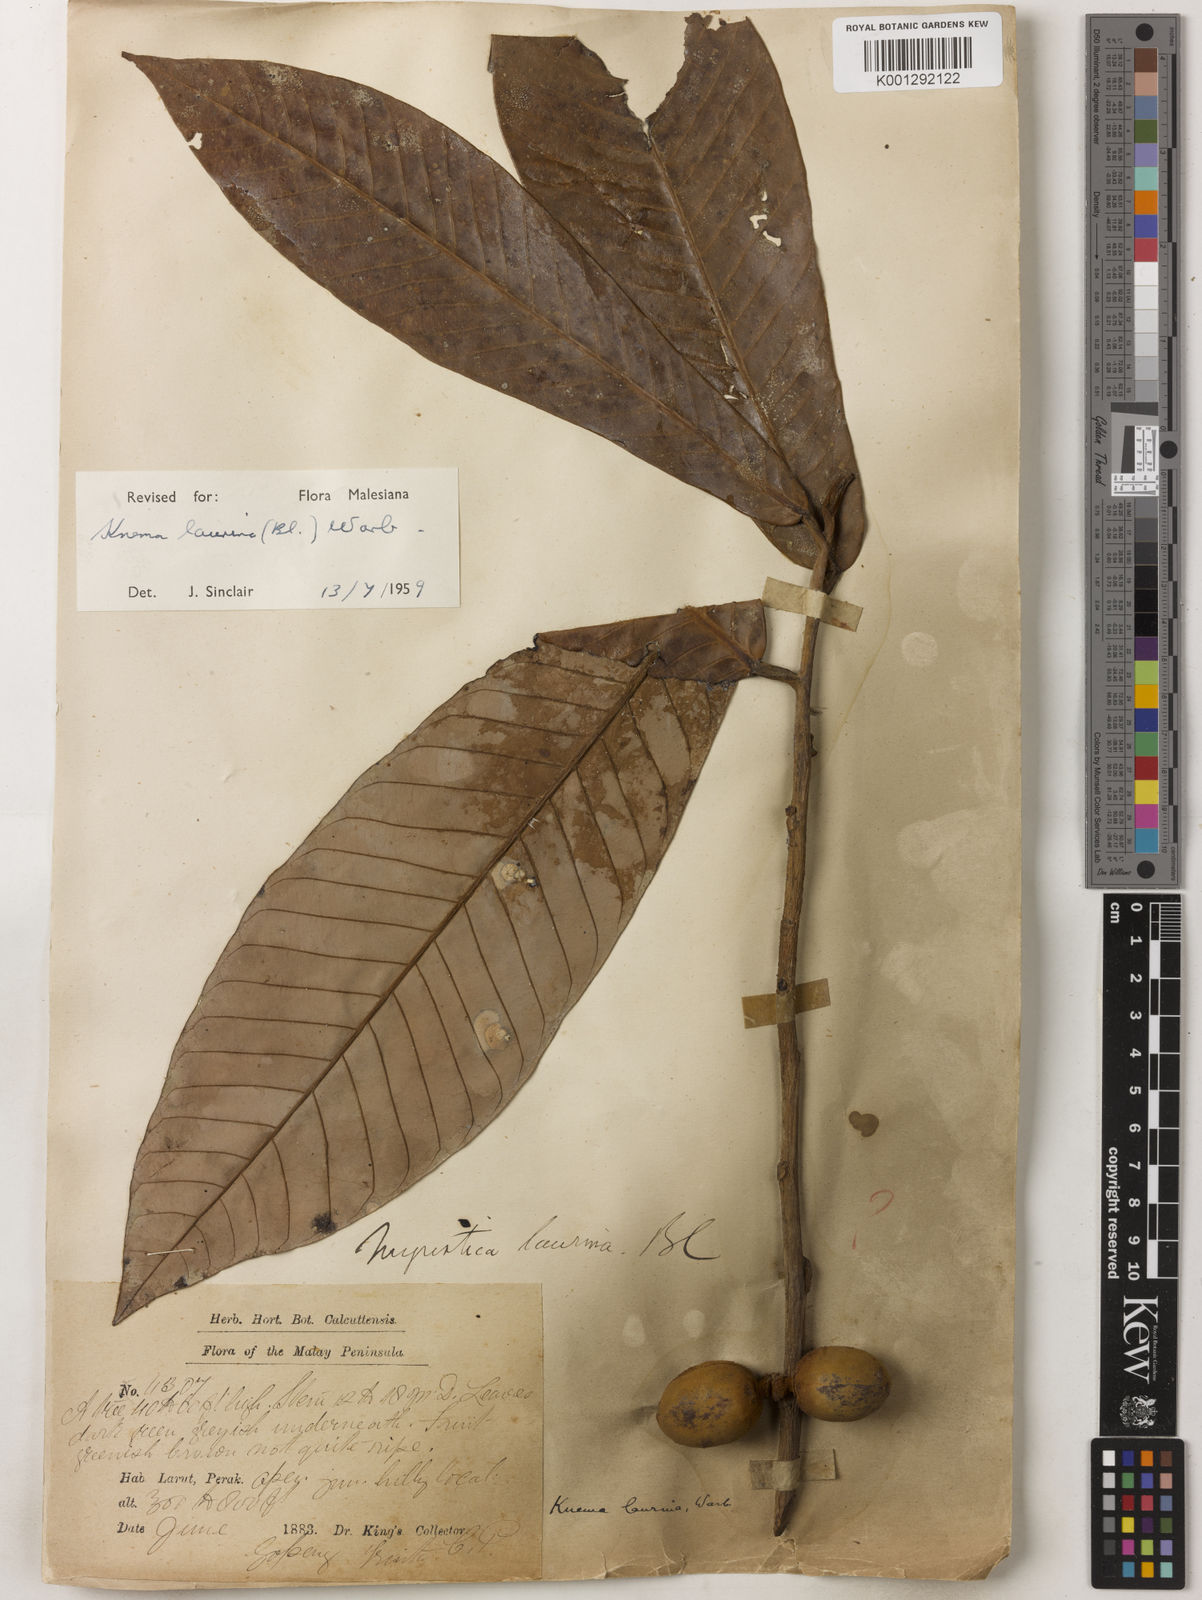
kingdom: Plantae
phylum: Tracheophyta
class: Magnoliopsida
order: Magnoliales
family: Myristicaceae
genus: Knema
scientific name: Knema laurina
